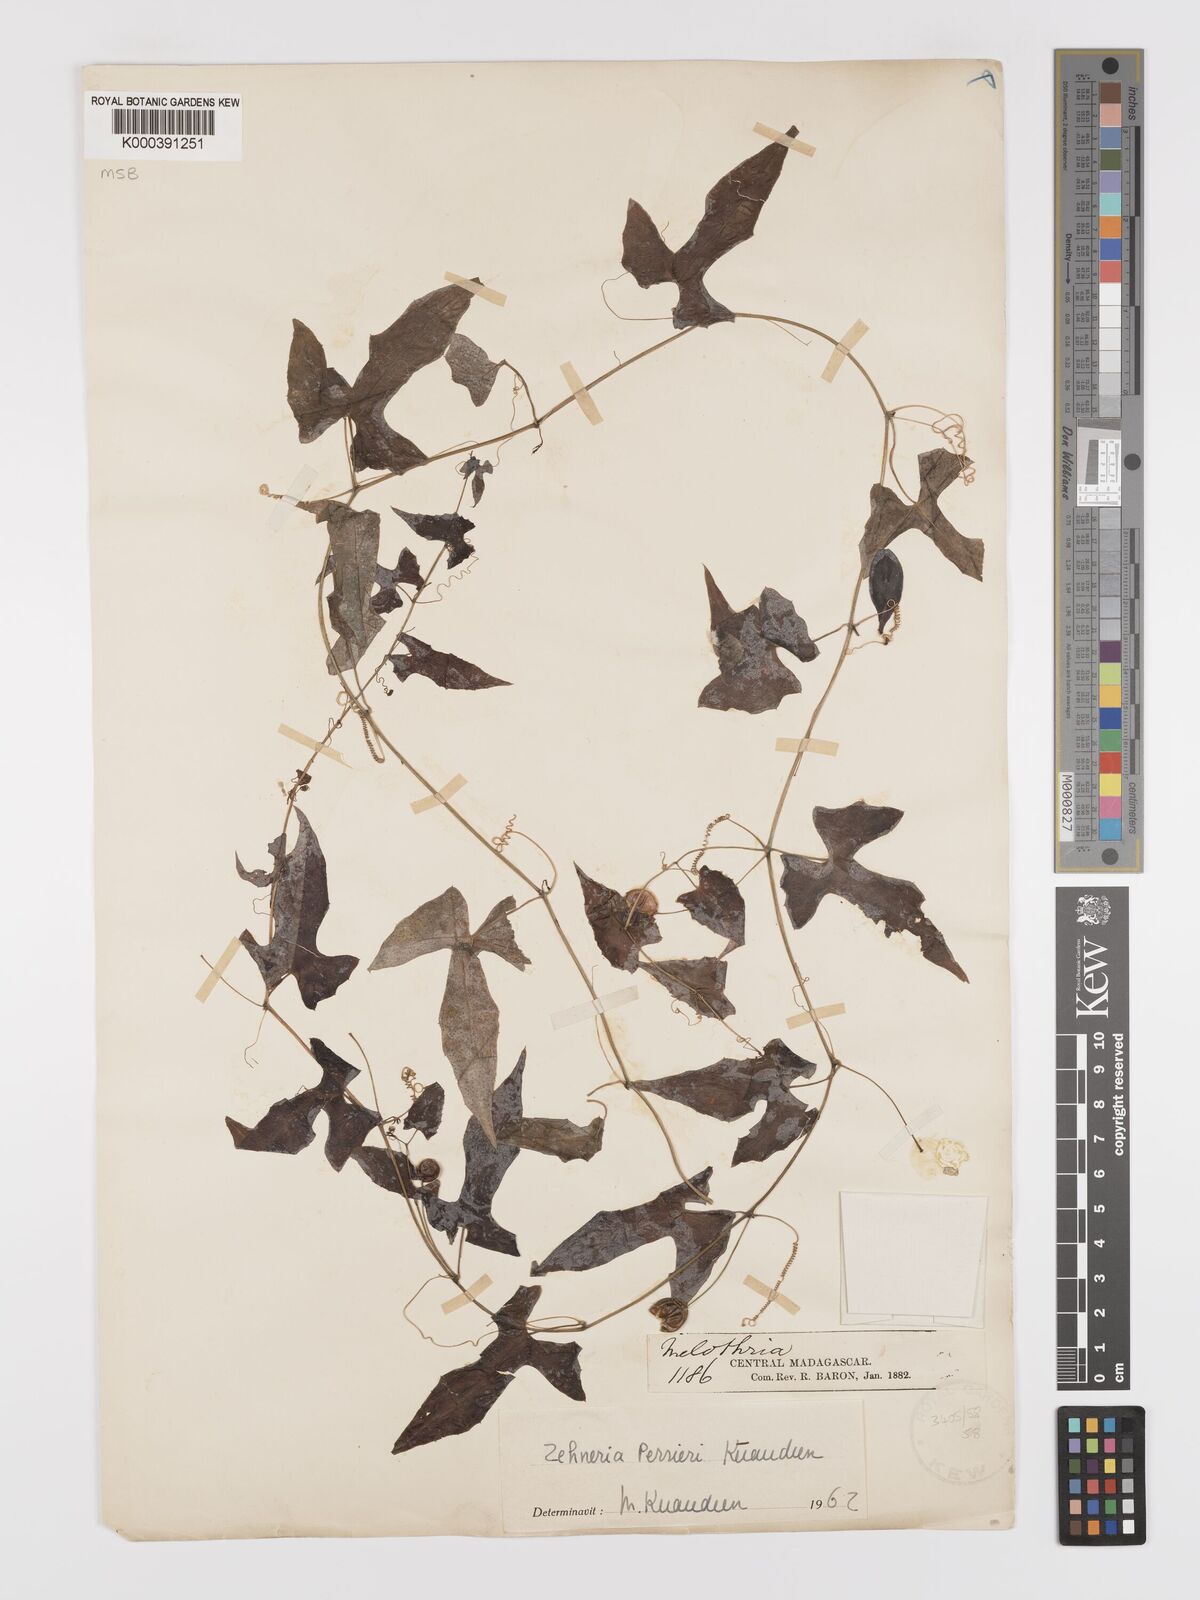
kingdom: Plantae
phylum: Tracheophyta
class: Magnoliopsida
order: Cucurbitales
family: Cucurbitaceae
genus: Zehneria
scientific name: Zehneria perrieri
